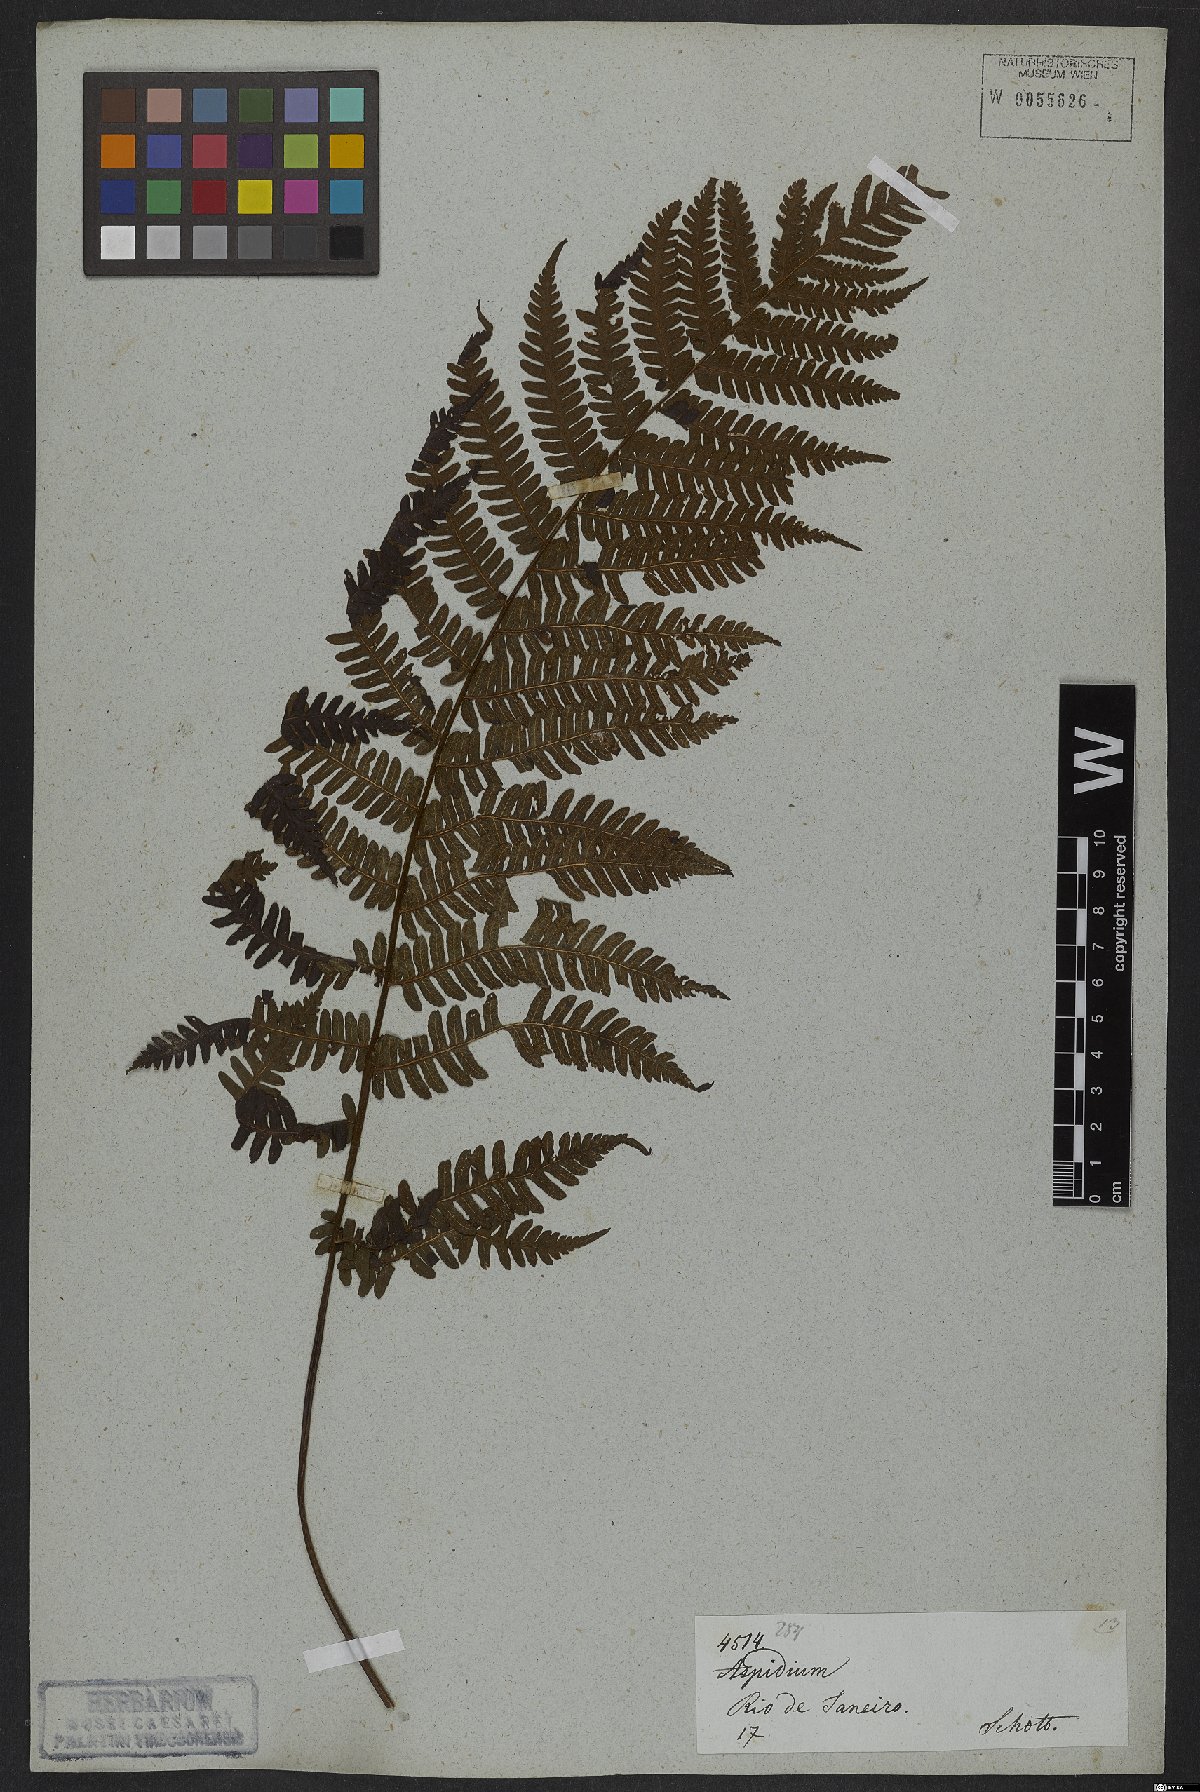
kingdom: Plantae
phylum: Tracheophyta
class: Polypodiopsida
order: Polypodiales
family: Dryopteridaceae
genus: Ctenitis
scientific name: Ctenitis falciculata
